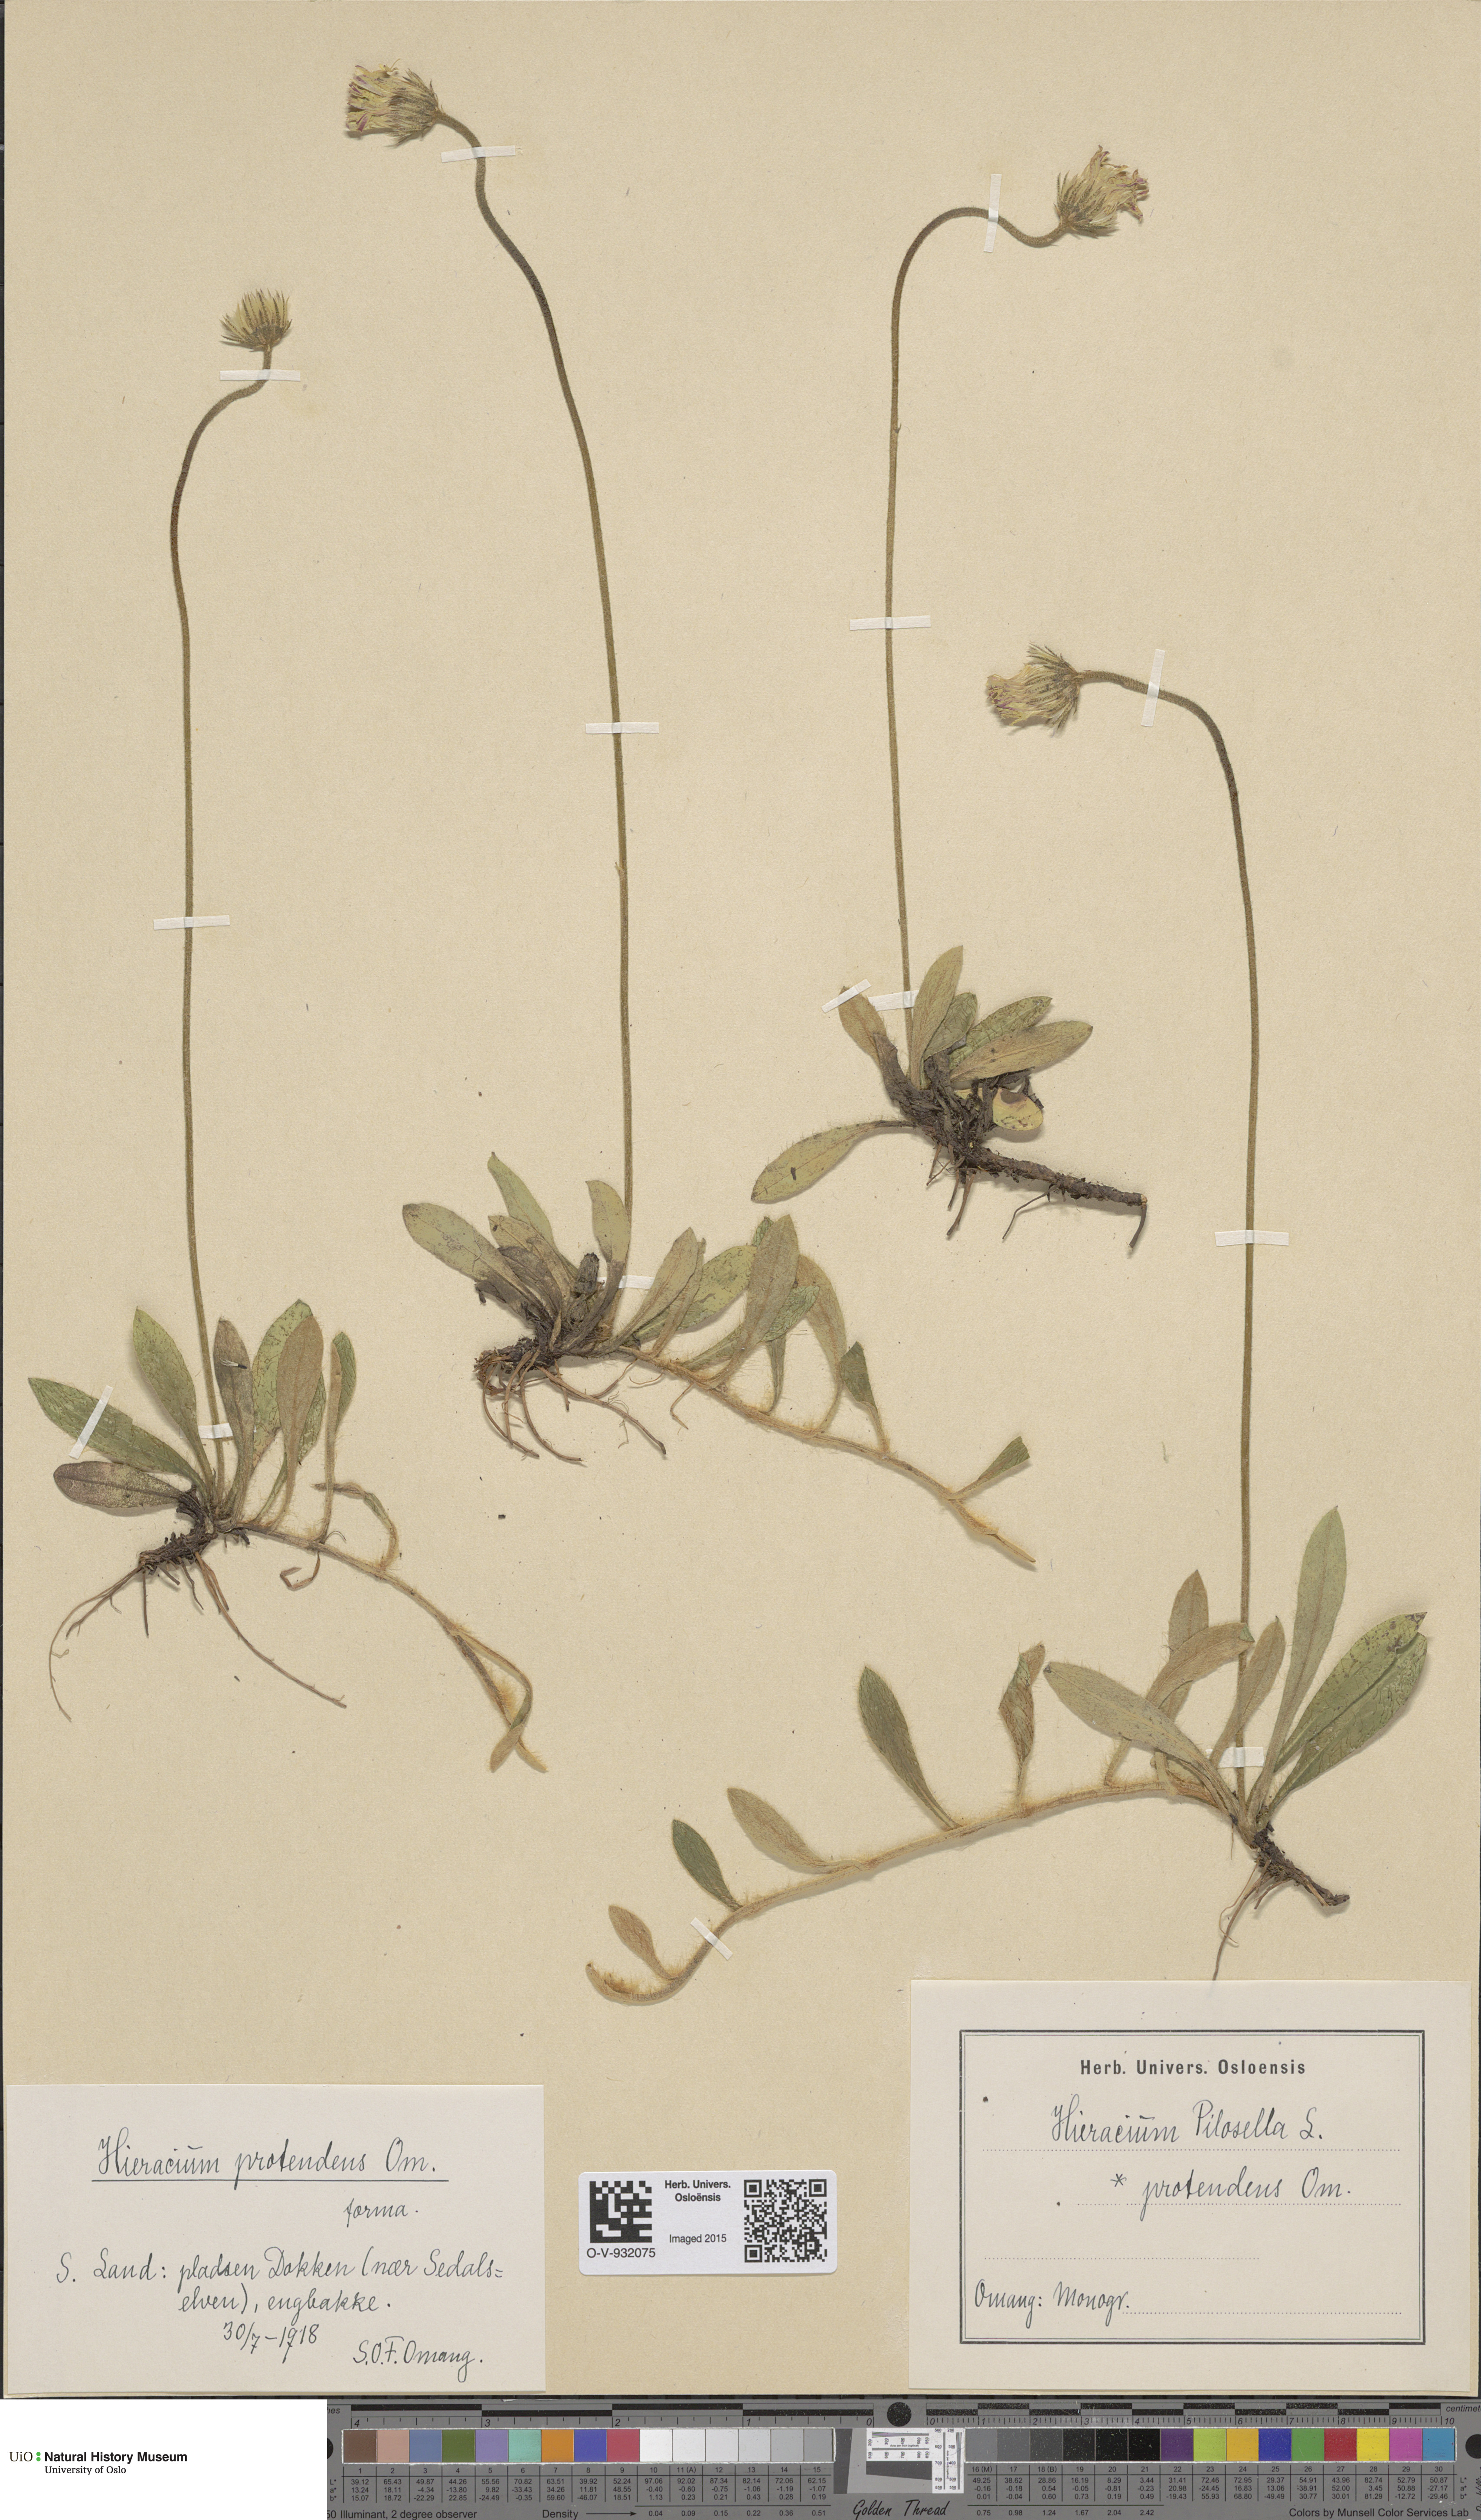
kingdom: Plantae
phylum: Tracheophyta
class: Magnoliopsida
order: Asterales
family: Asteraceae
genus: Pilosella
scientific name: Pilosella officinarum
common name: Mouse-ear hawkweed
